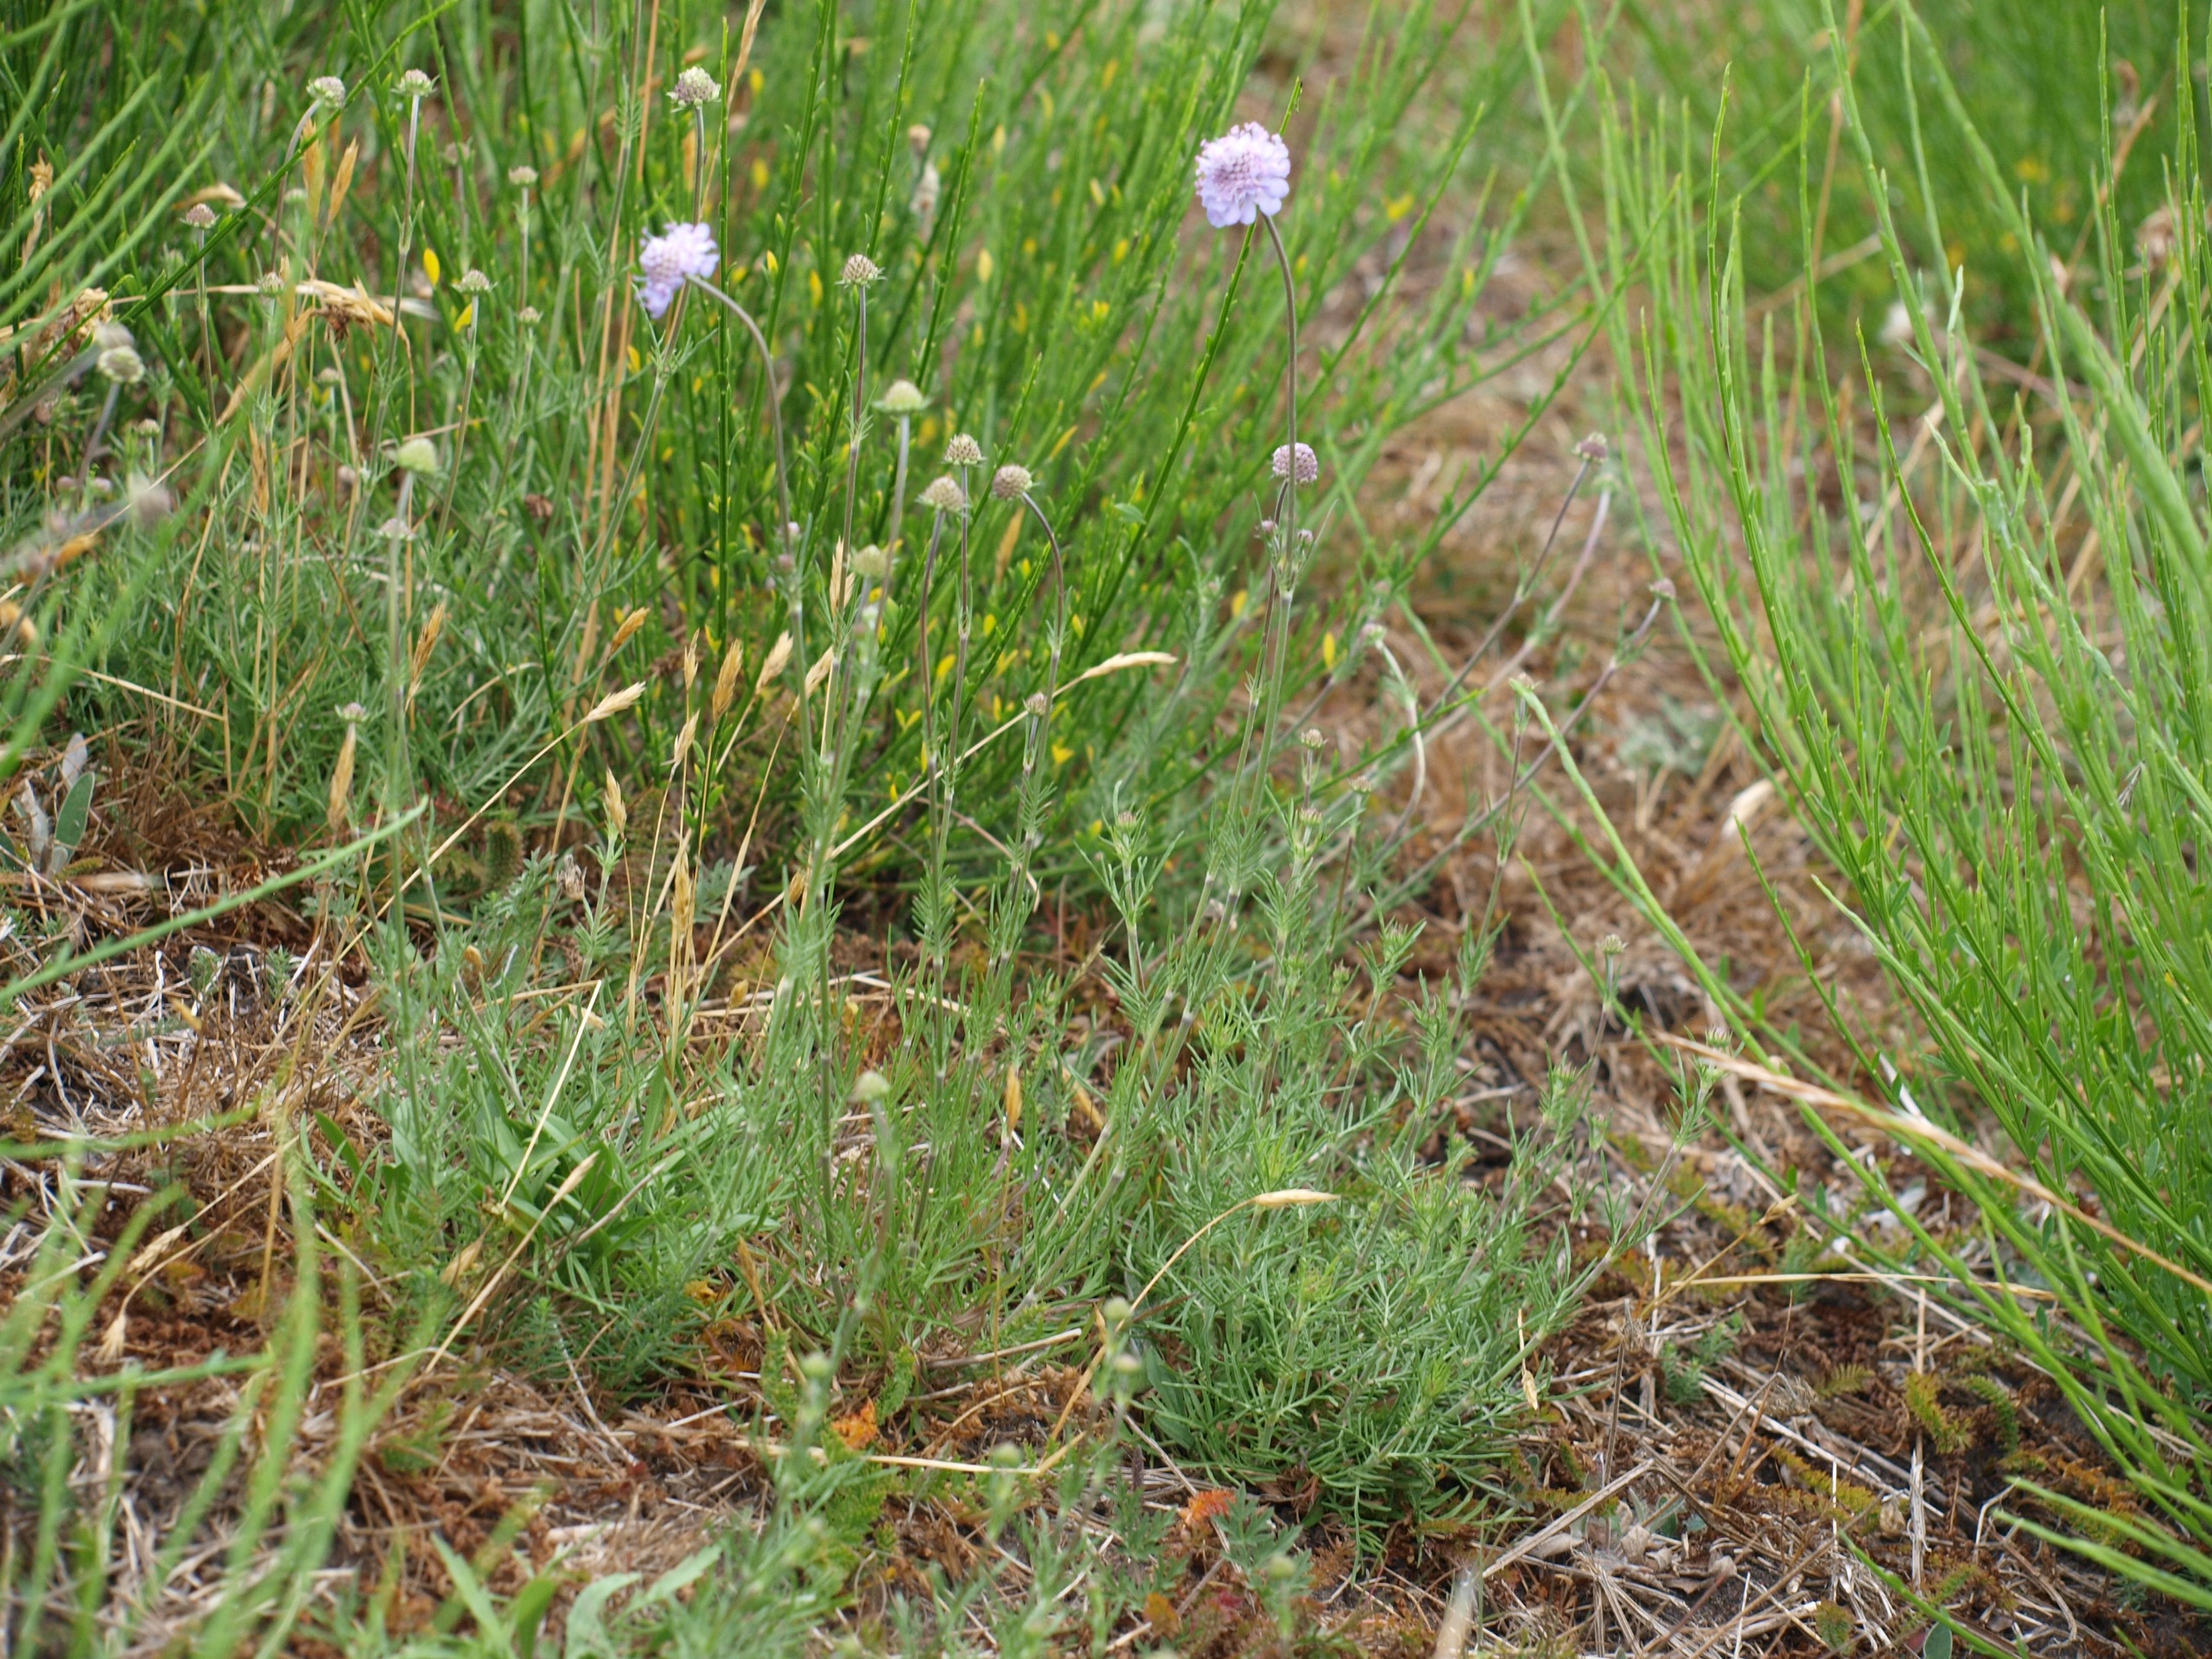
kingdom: Plantae
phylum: Tracheophyta
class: Magnoliopsida
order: Dipsacales
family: Caprifoliaceae
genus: Scabiosa
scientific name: Scabiosa canescens
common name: Vellugtende skabiose
